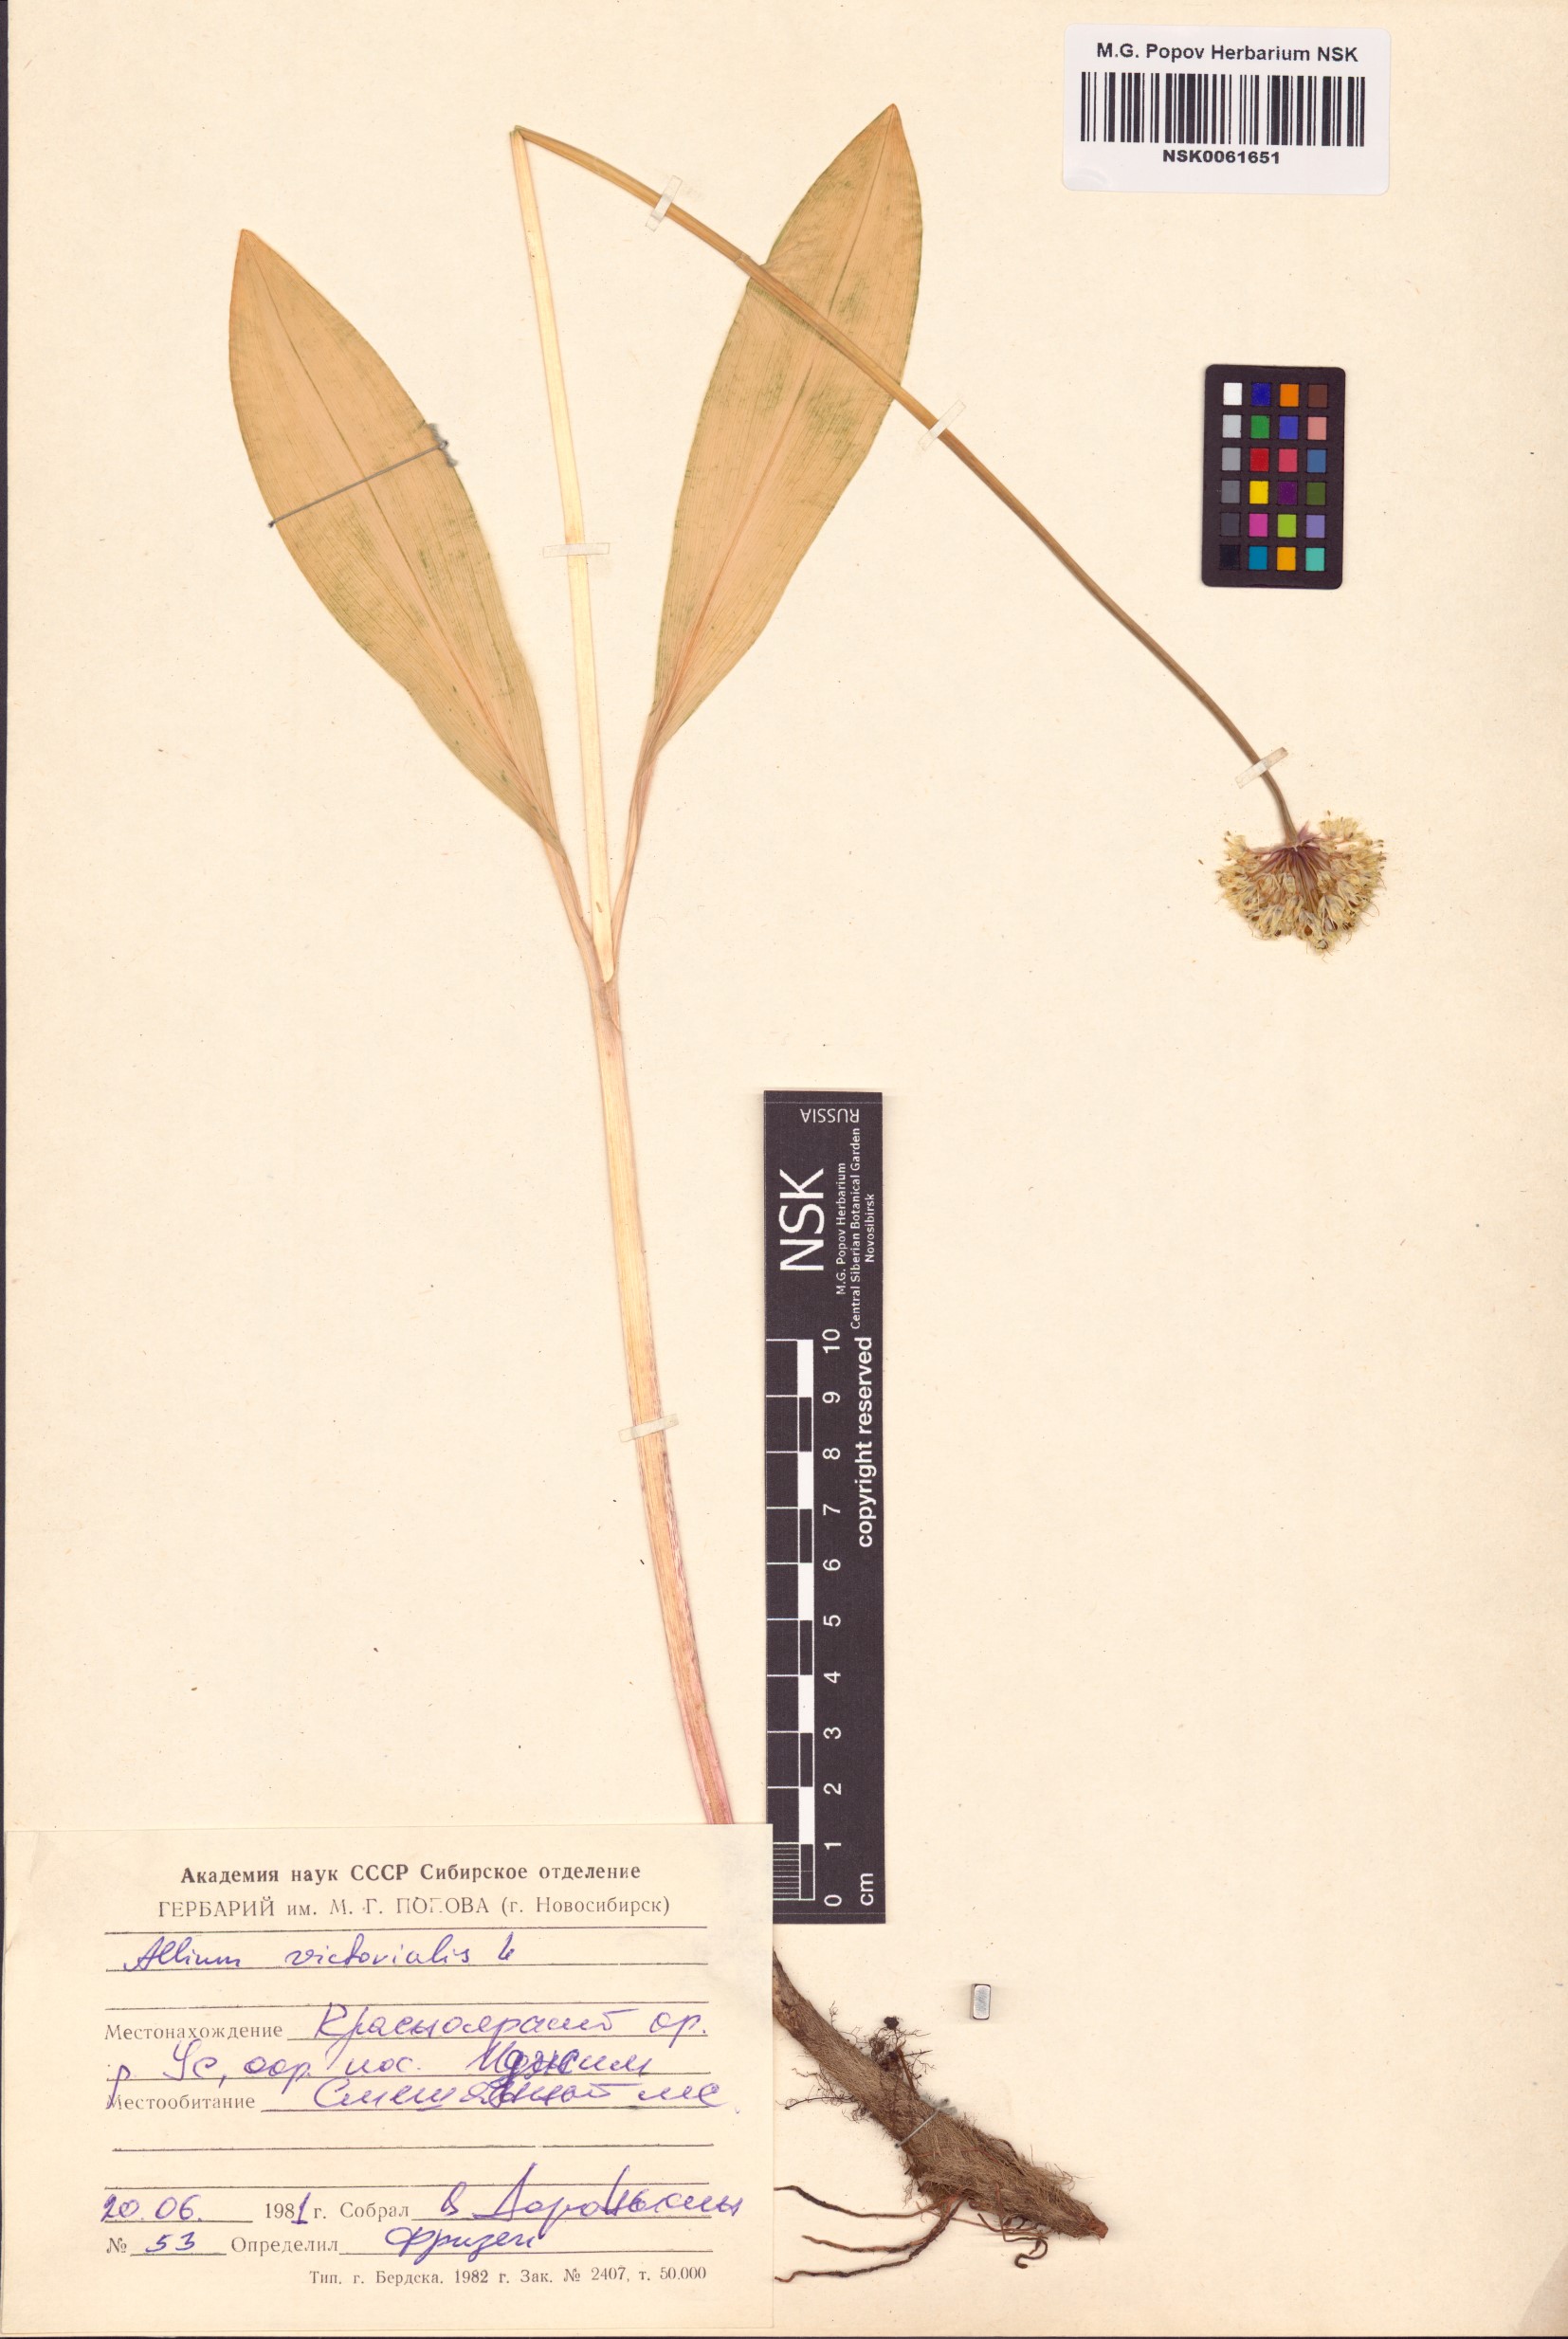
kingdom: Plantae
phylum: Tracheophyta
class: Liliopsida
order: Asparagales
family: Amaryllidaceae
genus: Allium
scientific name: Allium victorialis
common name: Alpine leek
